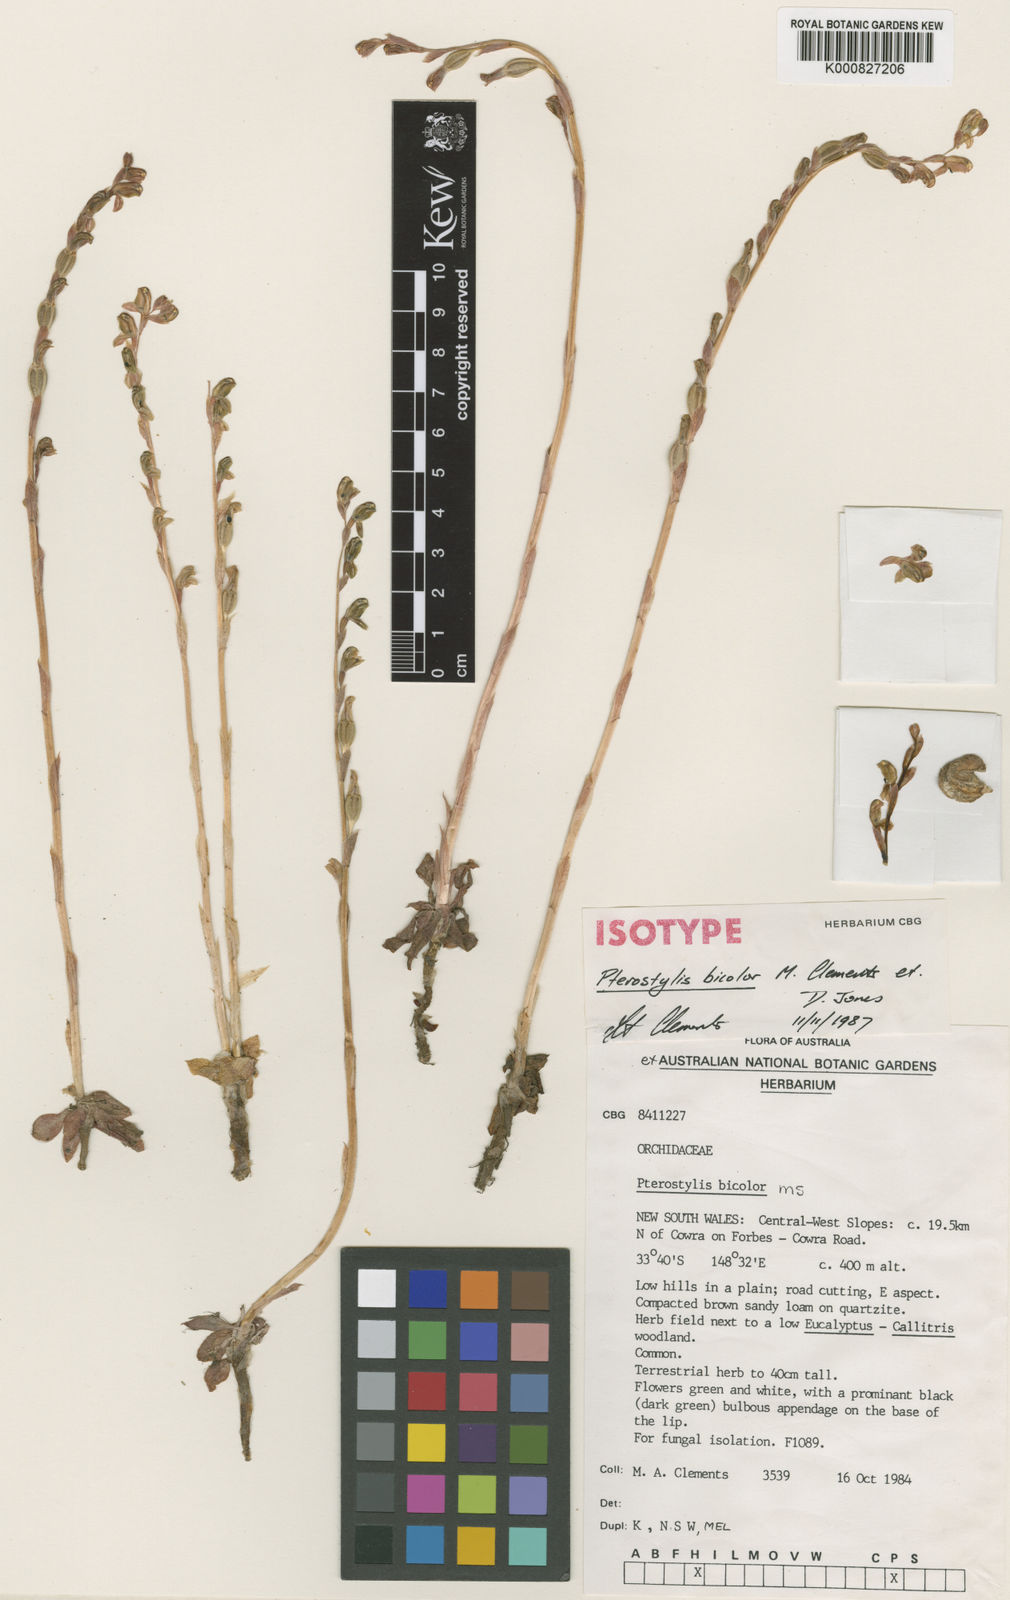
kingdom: Plantae
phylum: Tracheophyta
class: Liliopsida
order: Asparagales
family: Orchidaceae
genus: Pterostylis
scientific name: Pterostylis bicolor
